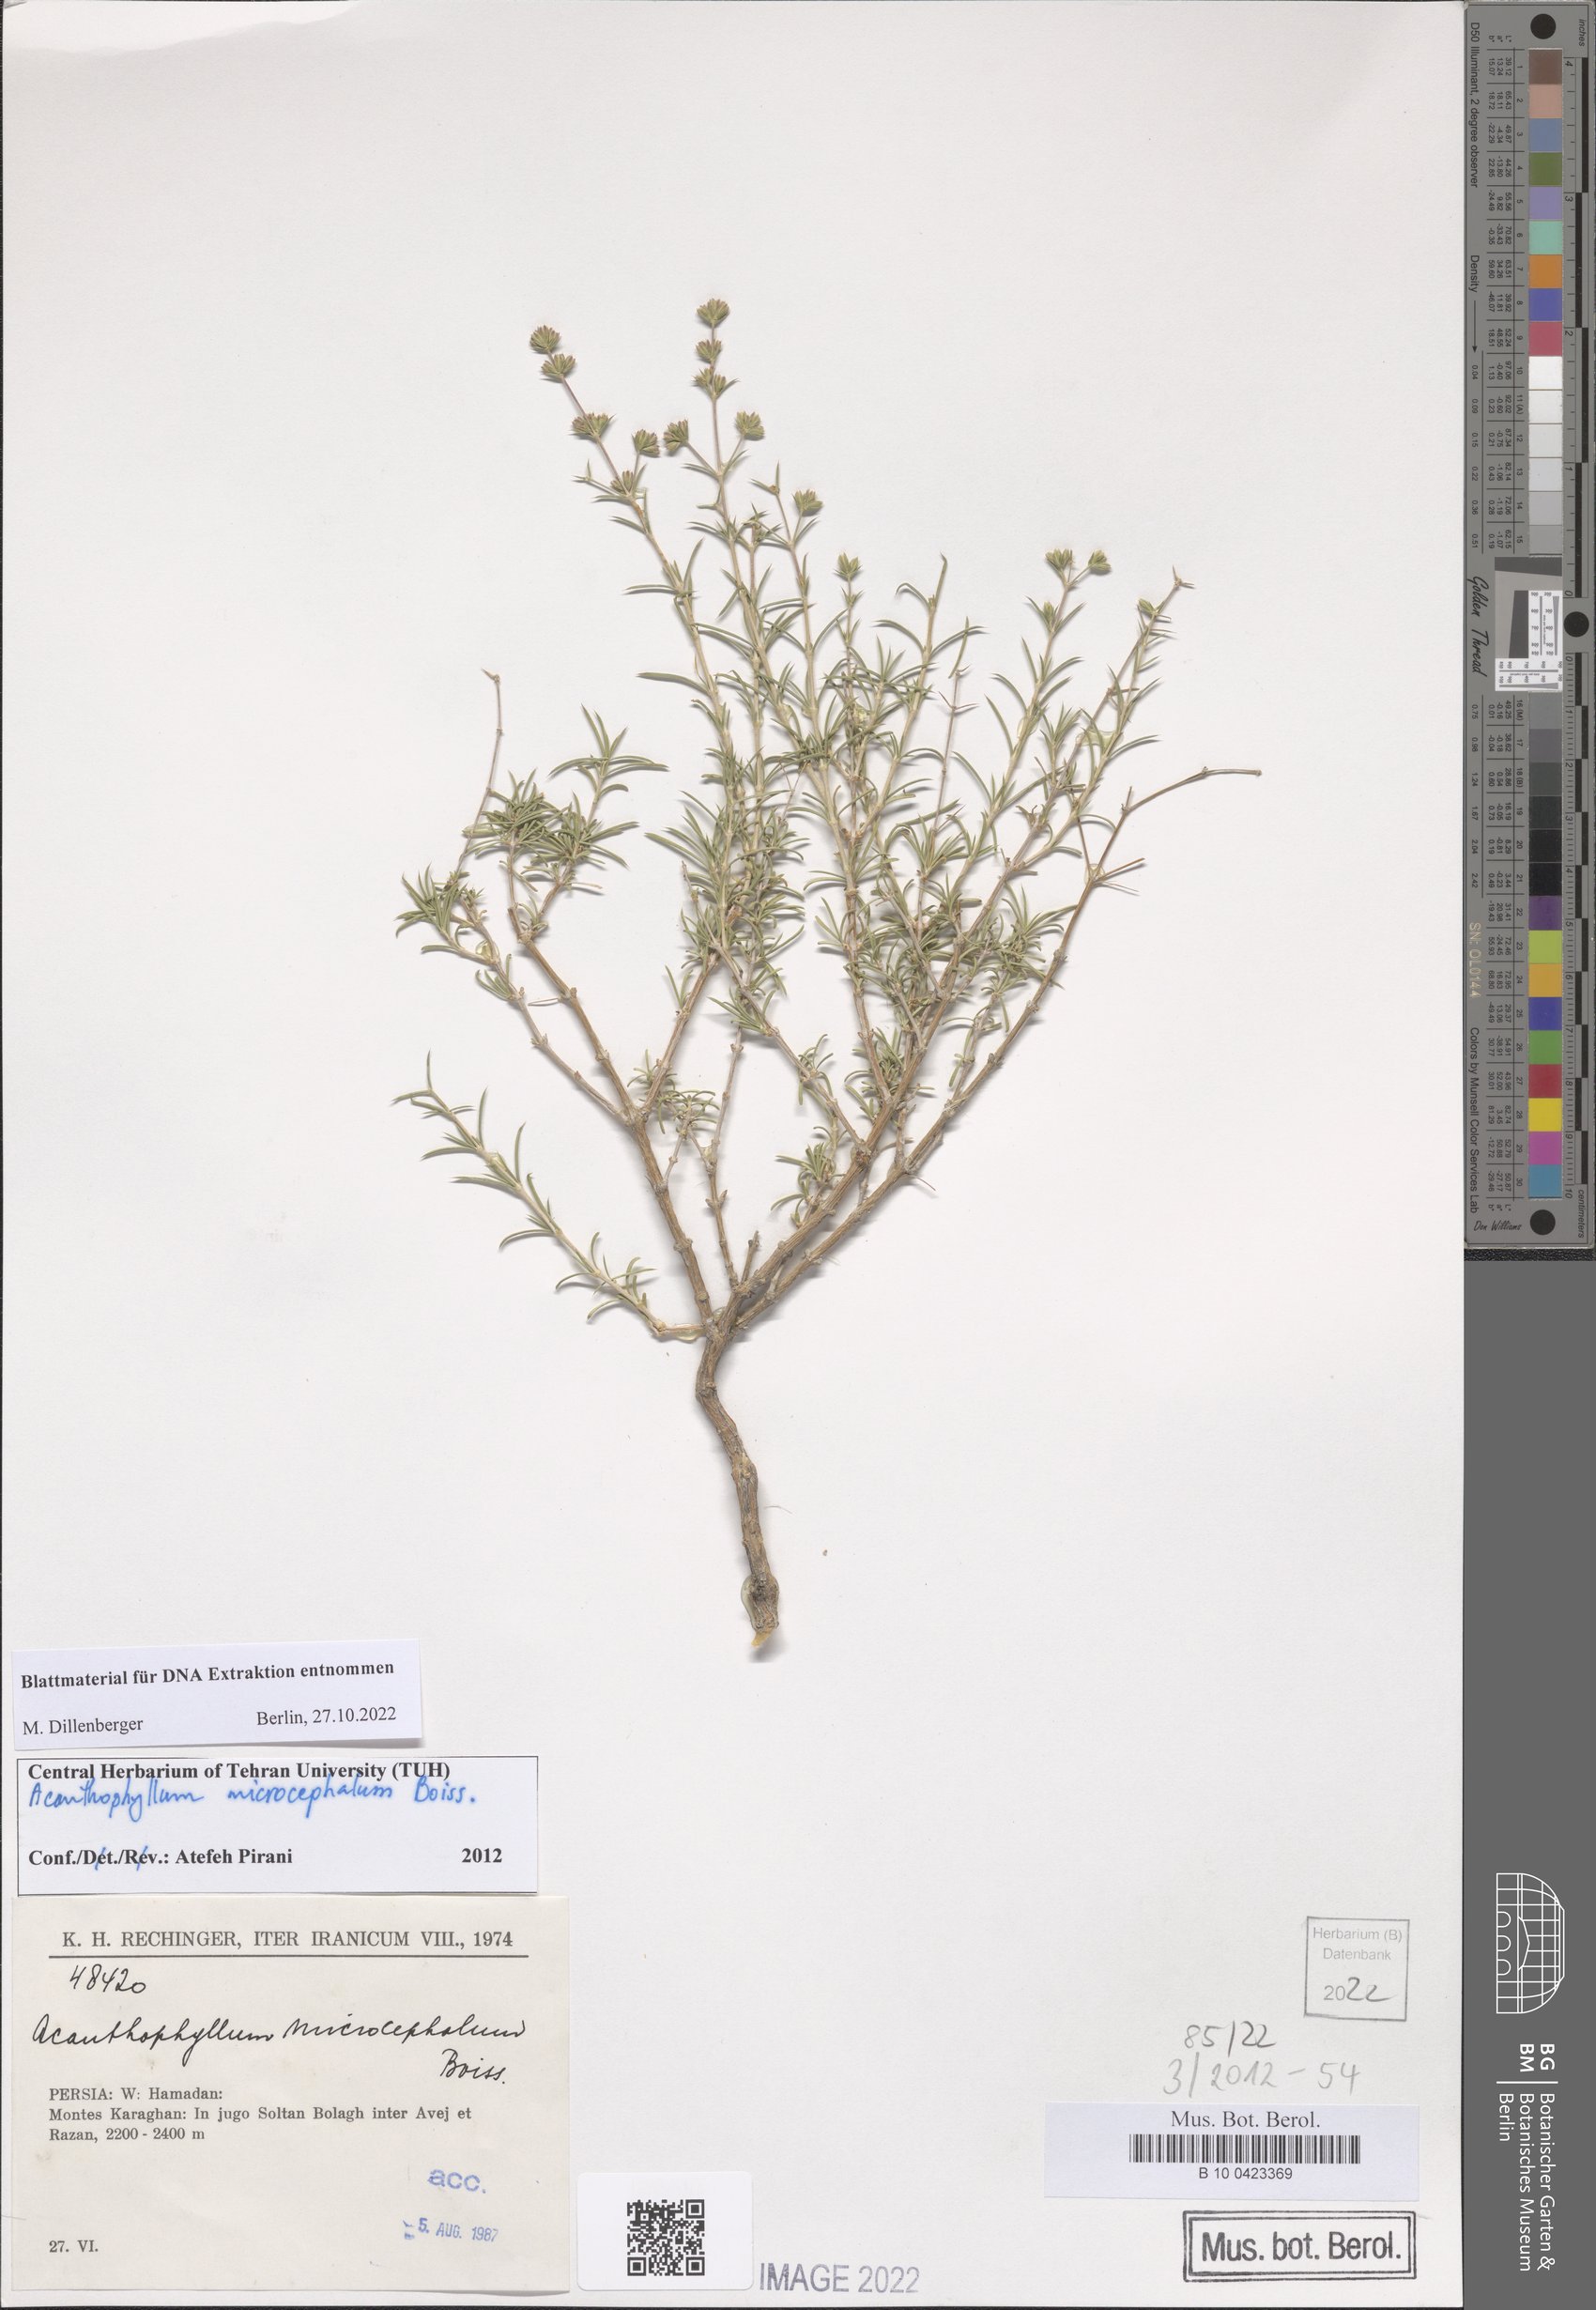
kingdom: Plantae
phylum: Tracheophyta
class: Magnoliopsida
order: Caryophyllales
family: Caryophyllaceae
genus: Acanthophyllum
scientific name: Acanthophyllum microcephalum
